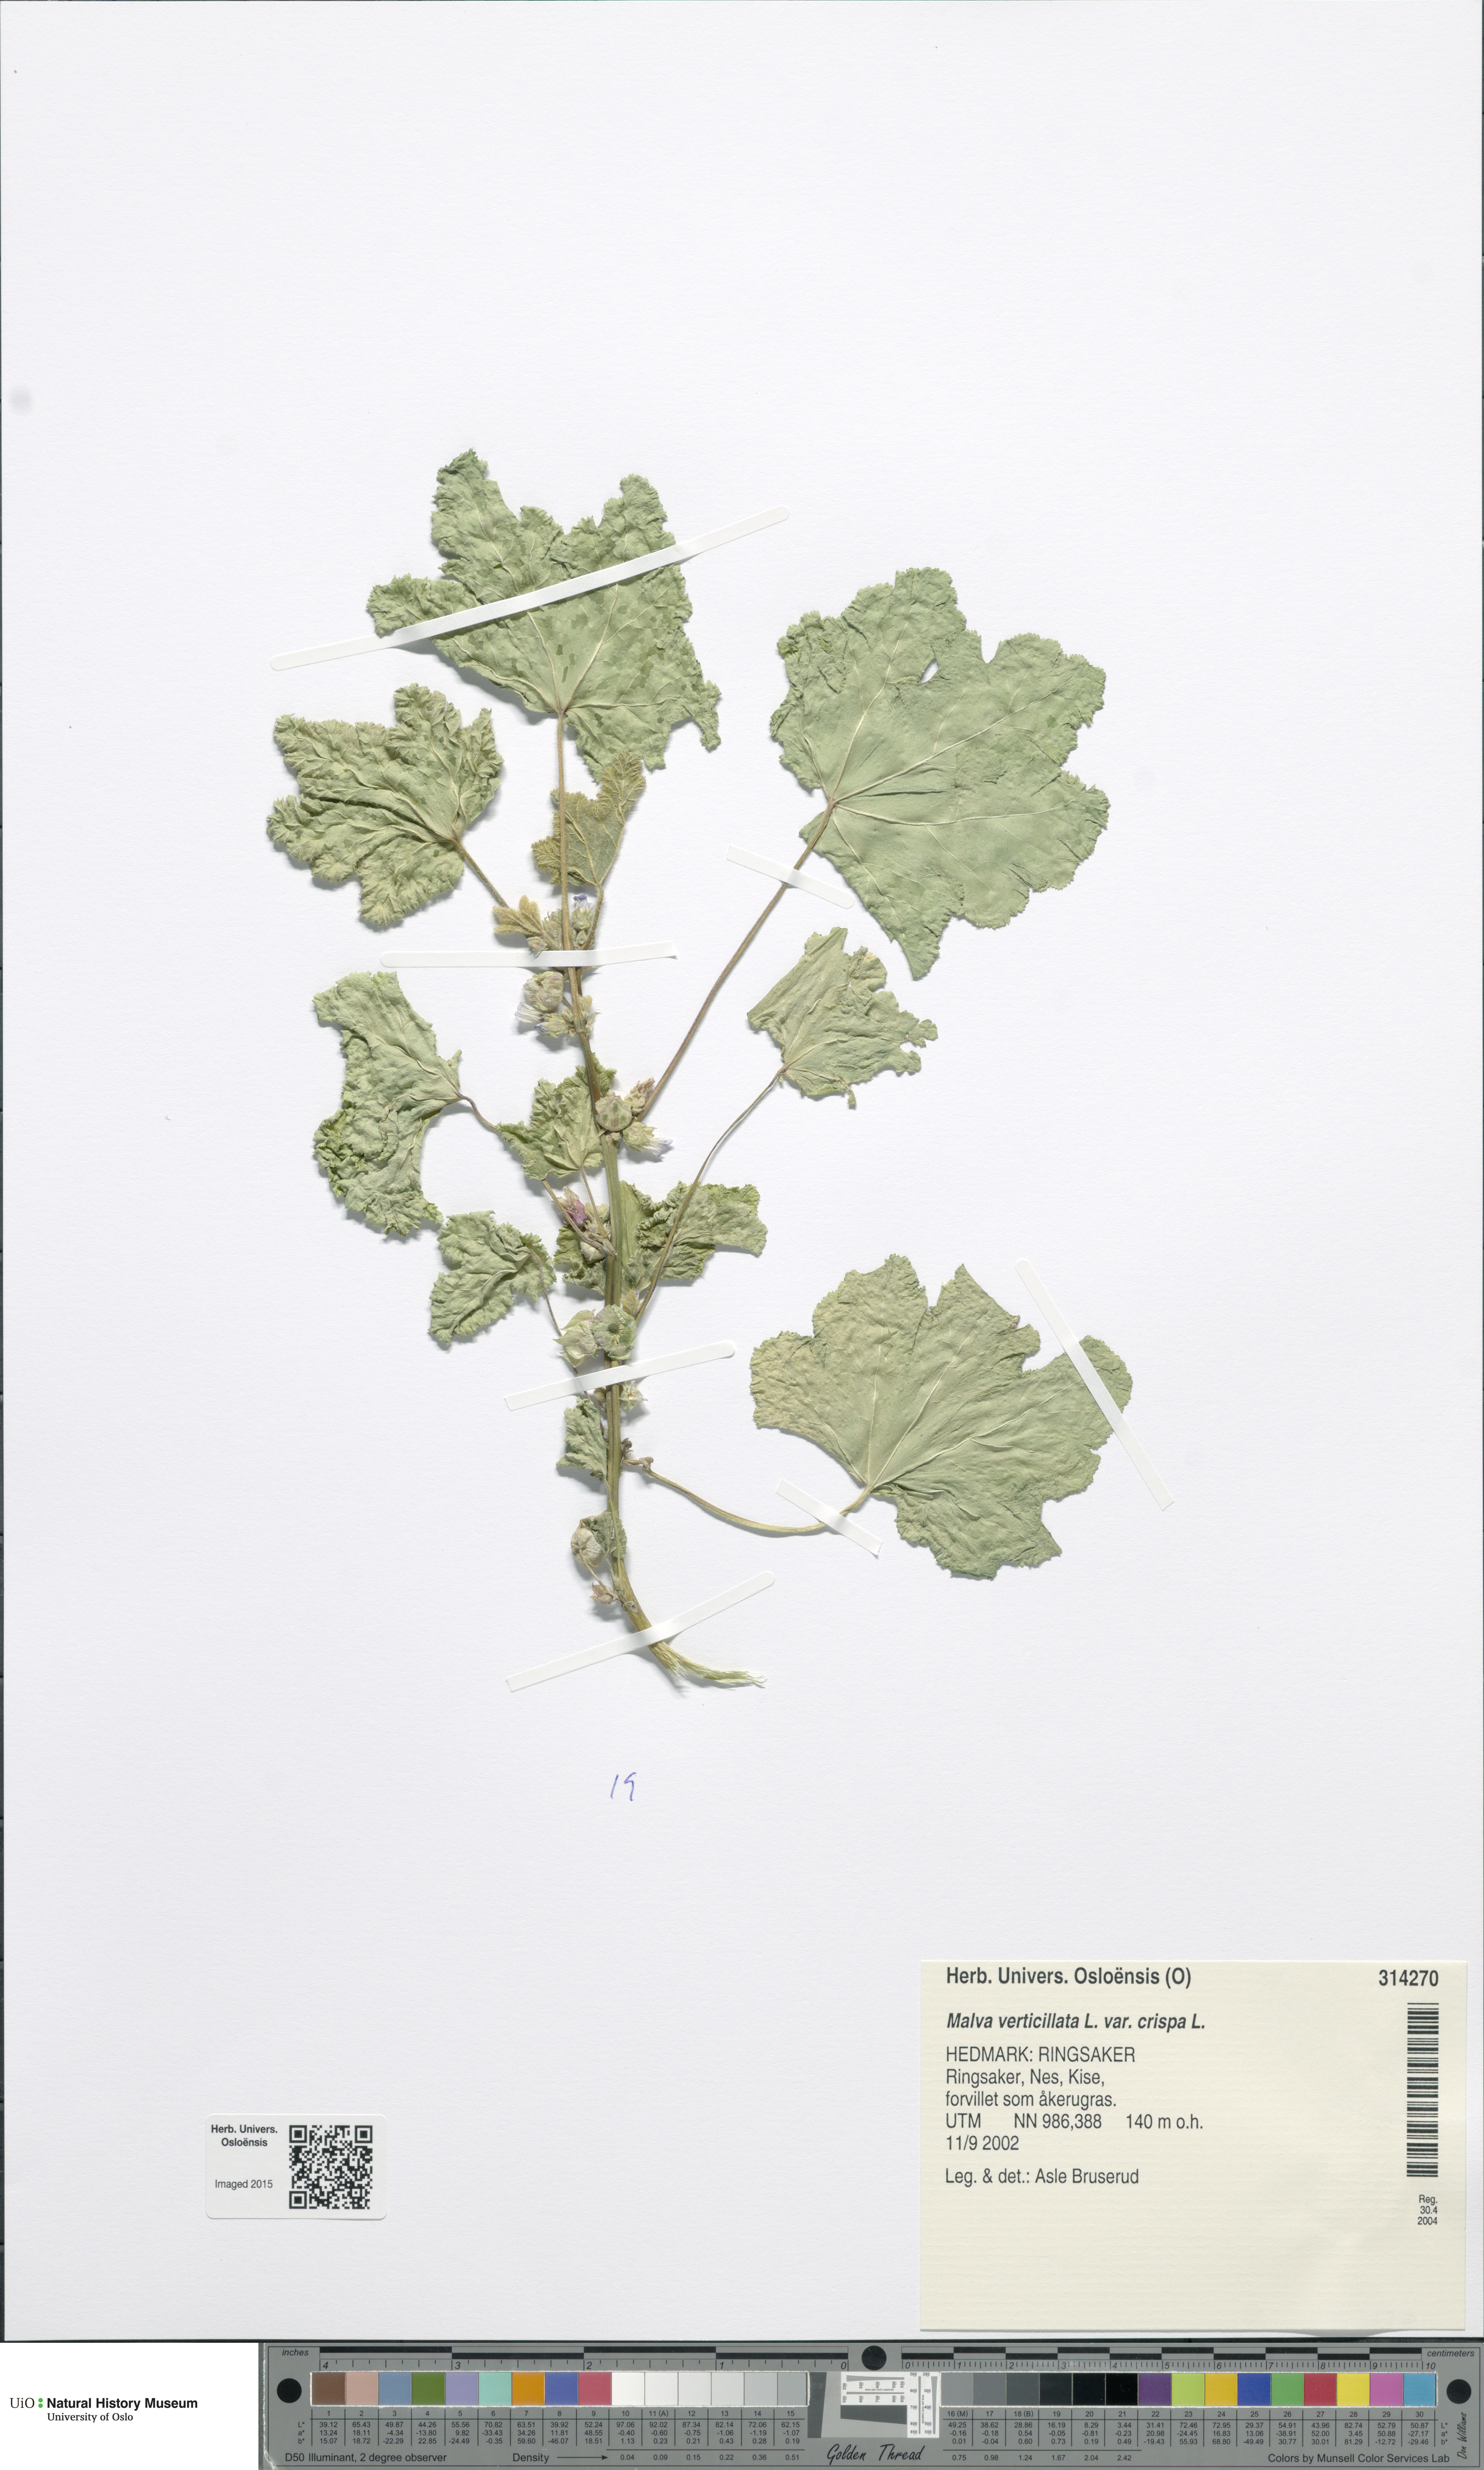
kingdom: Plantae
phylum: Tracheophyta
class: Magnoliopsida
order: Malvales
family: Malvaceae
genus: Malva
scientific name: Malva verticillata
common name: Chinese mallow
